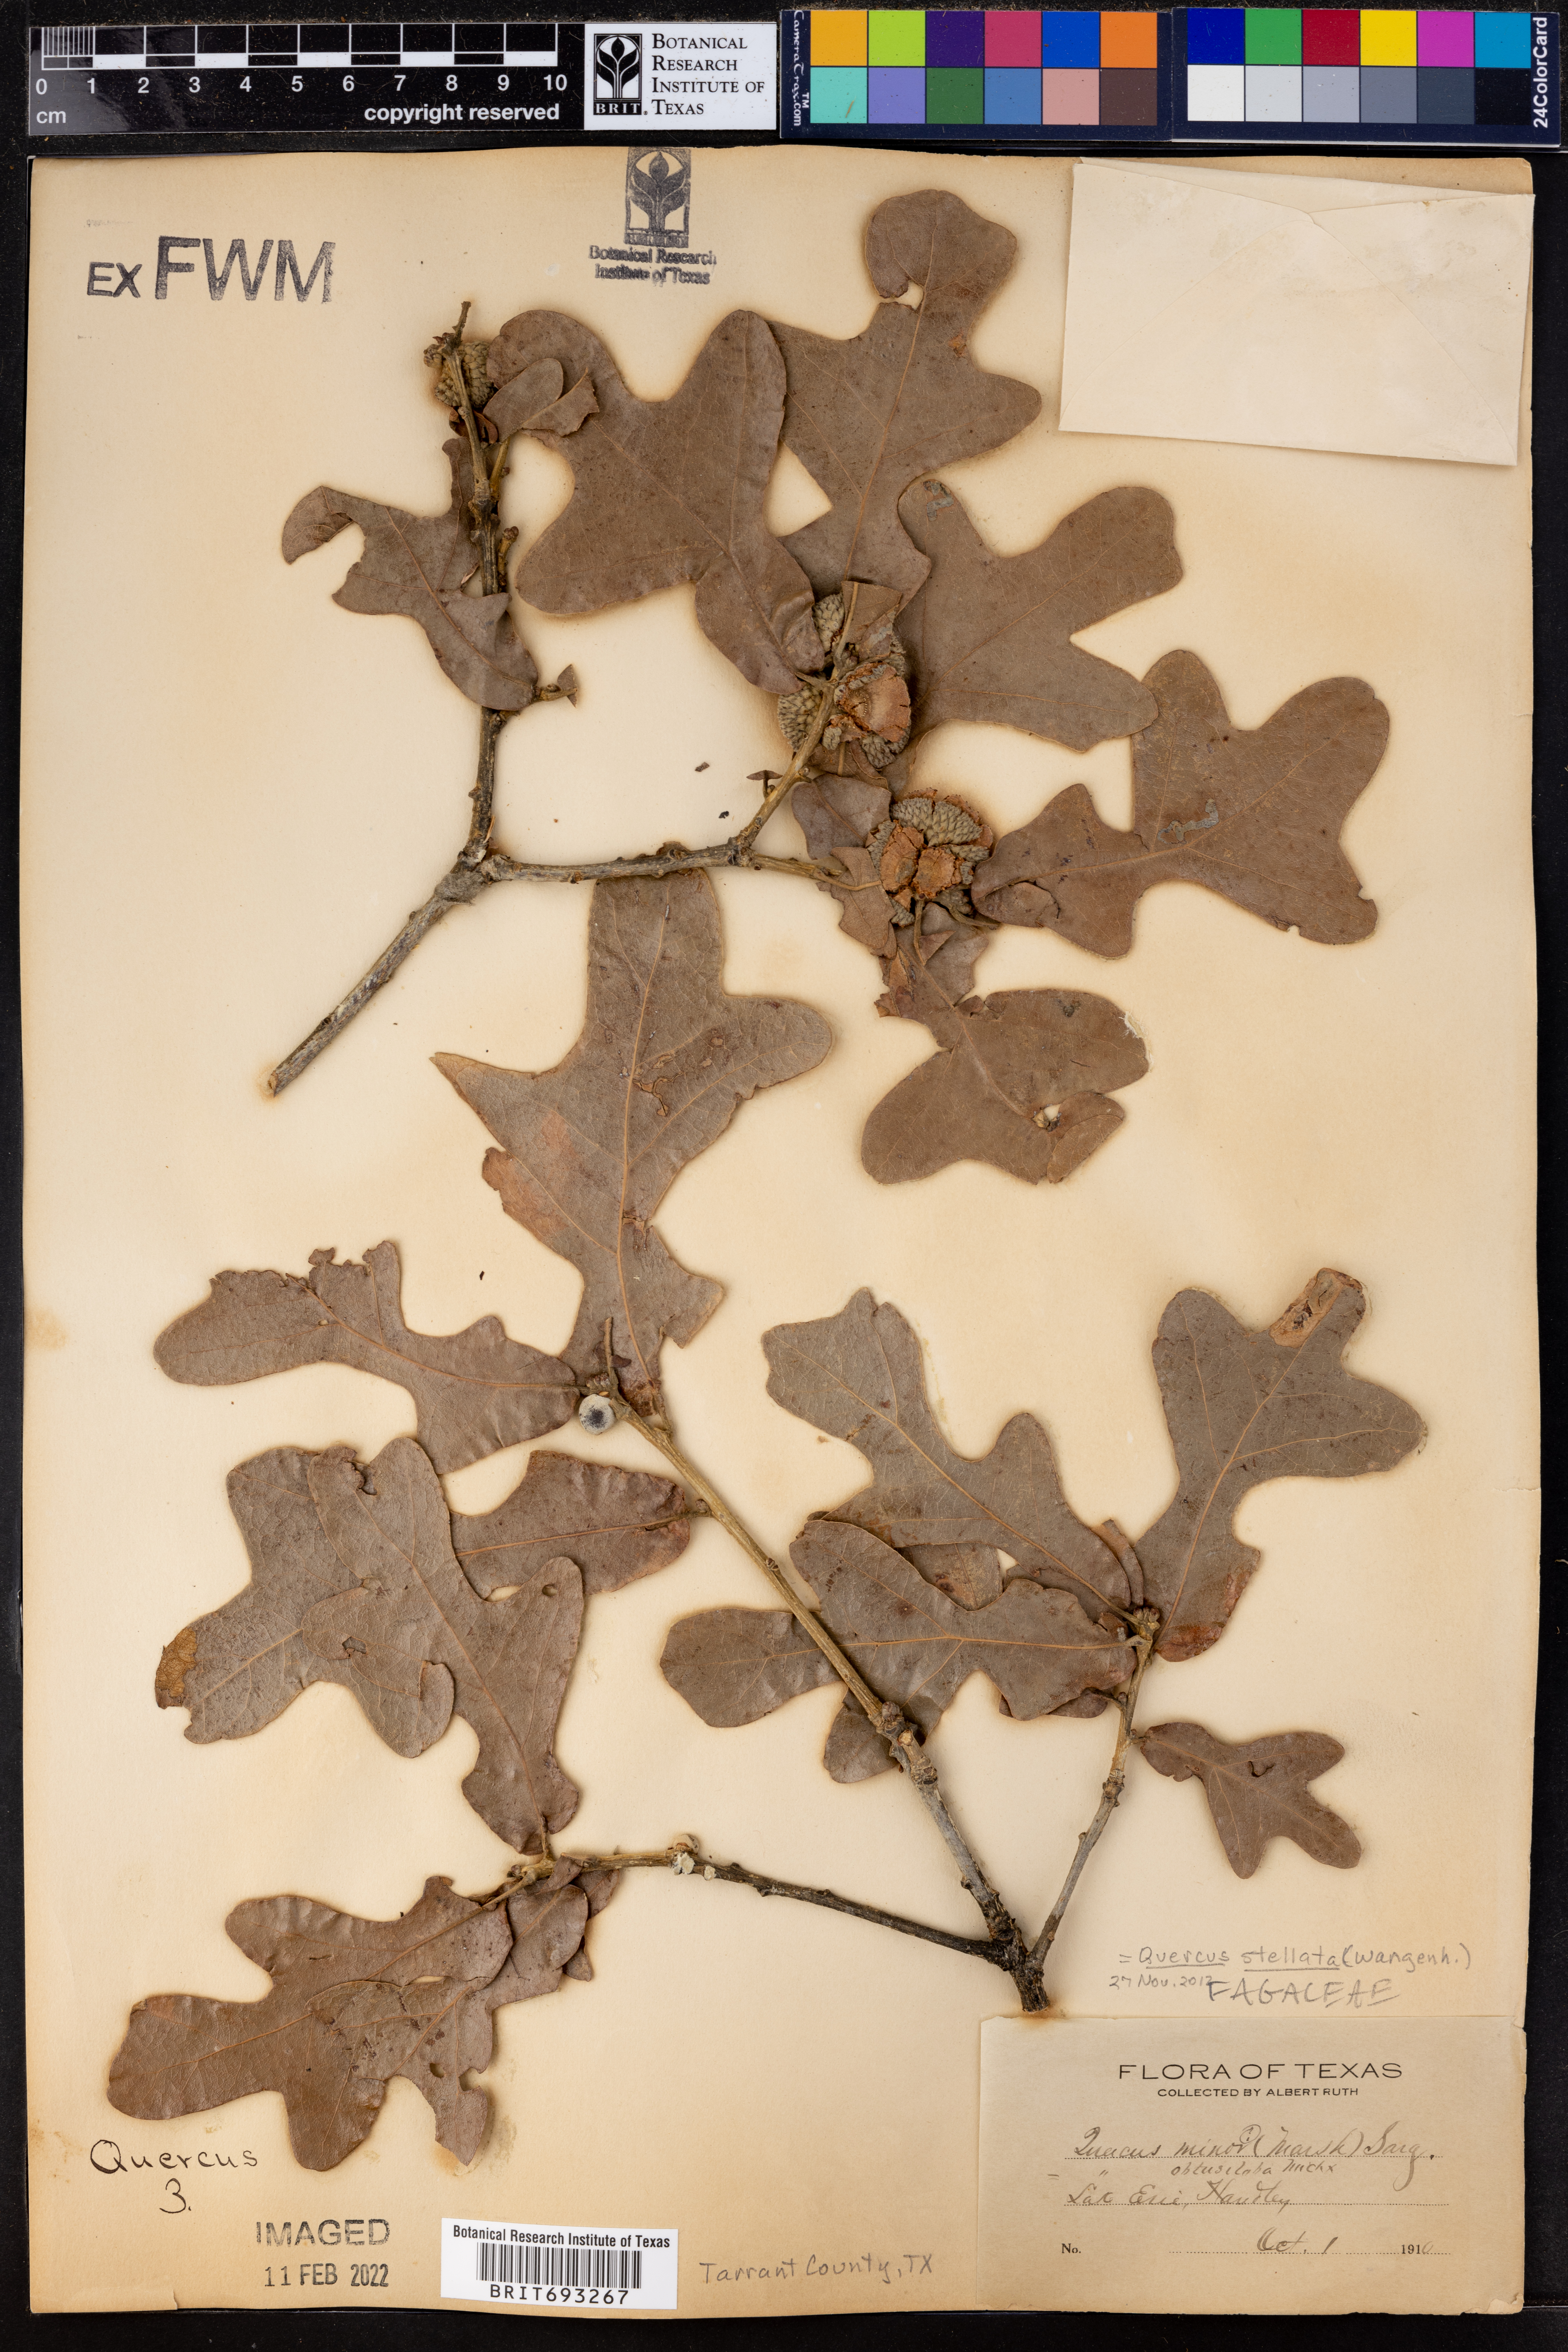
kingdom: Plantae
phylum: Tracheophyta
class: Magnoliopsida
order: Fagales
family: Fagaceae
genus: Quercus
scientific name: Quercus stellata
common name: Post oak
